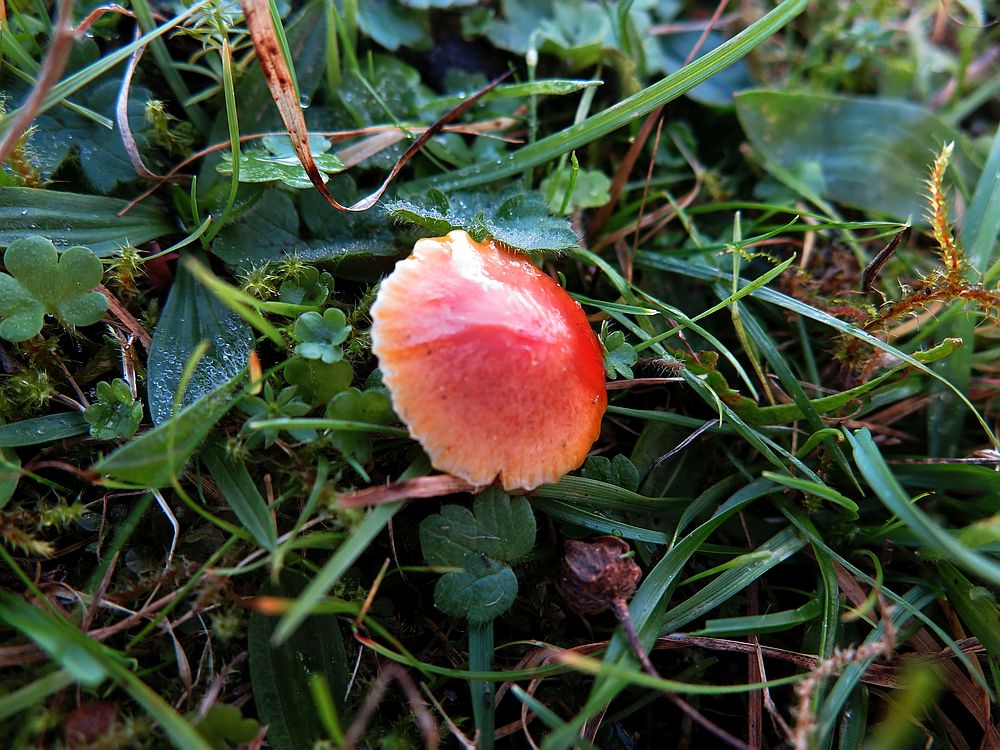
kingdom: Fungi
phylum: Basidiomycota
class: Agaricomycetes
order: Agaricales
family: Hygrophoraceae
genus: Hygrocybe
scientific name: Hygrocybe
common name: vokshat
